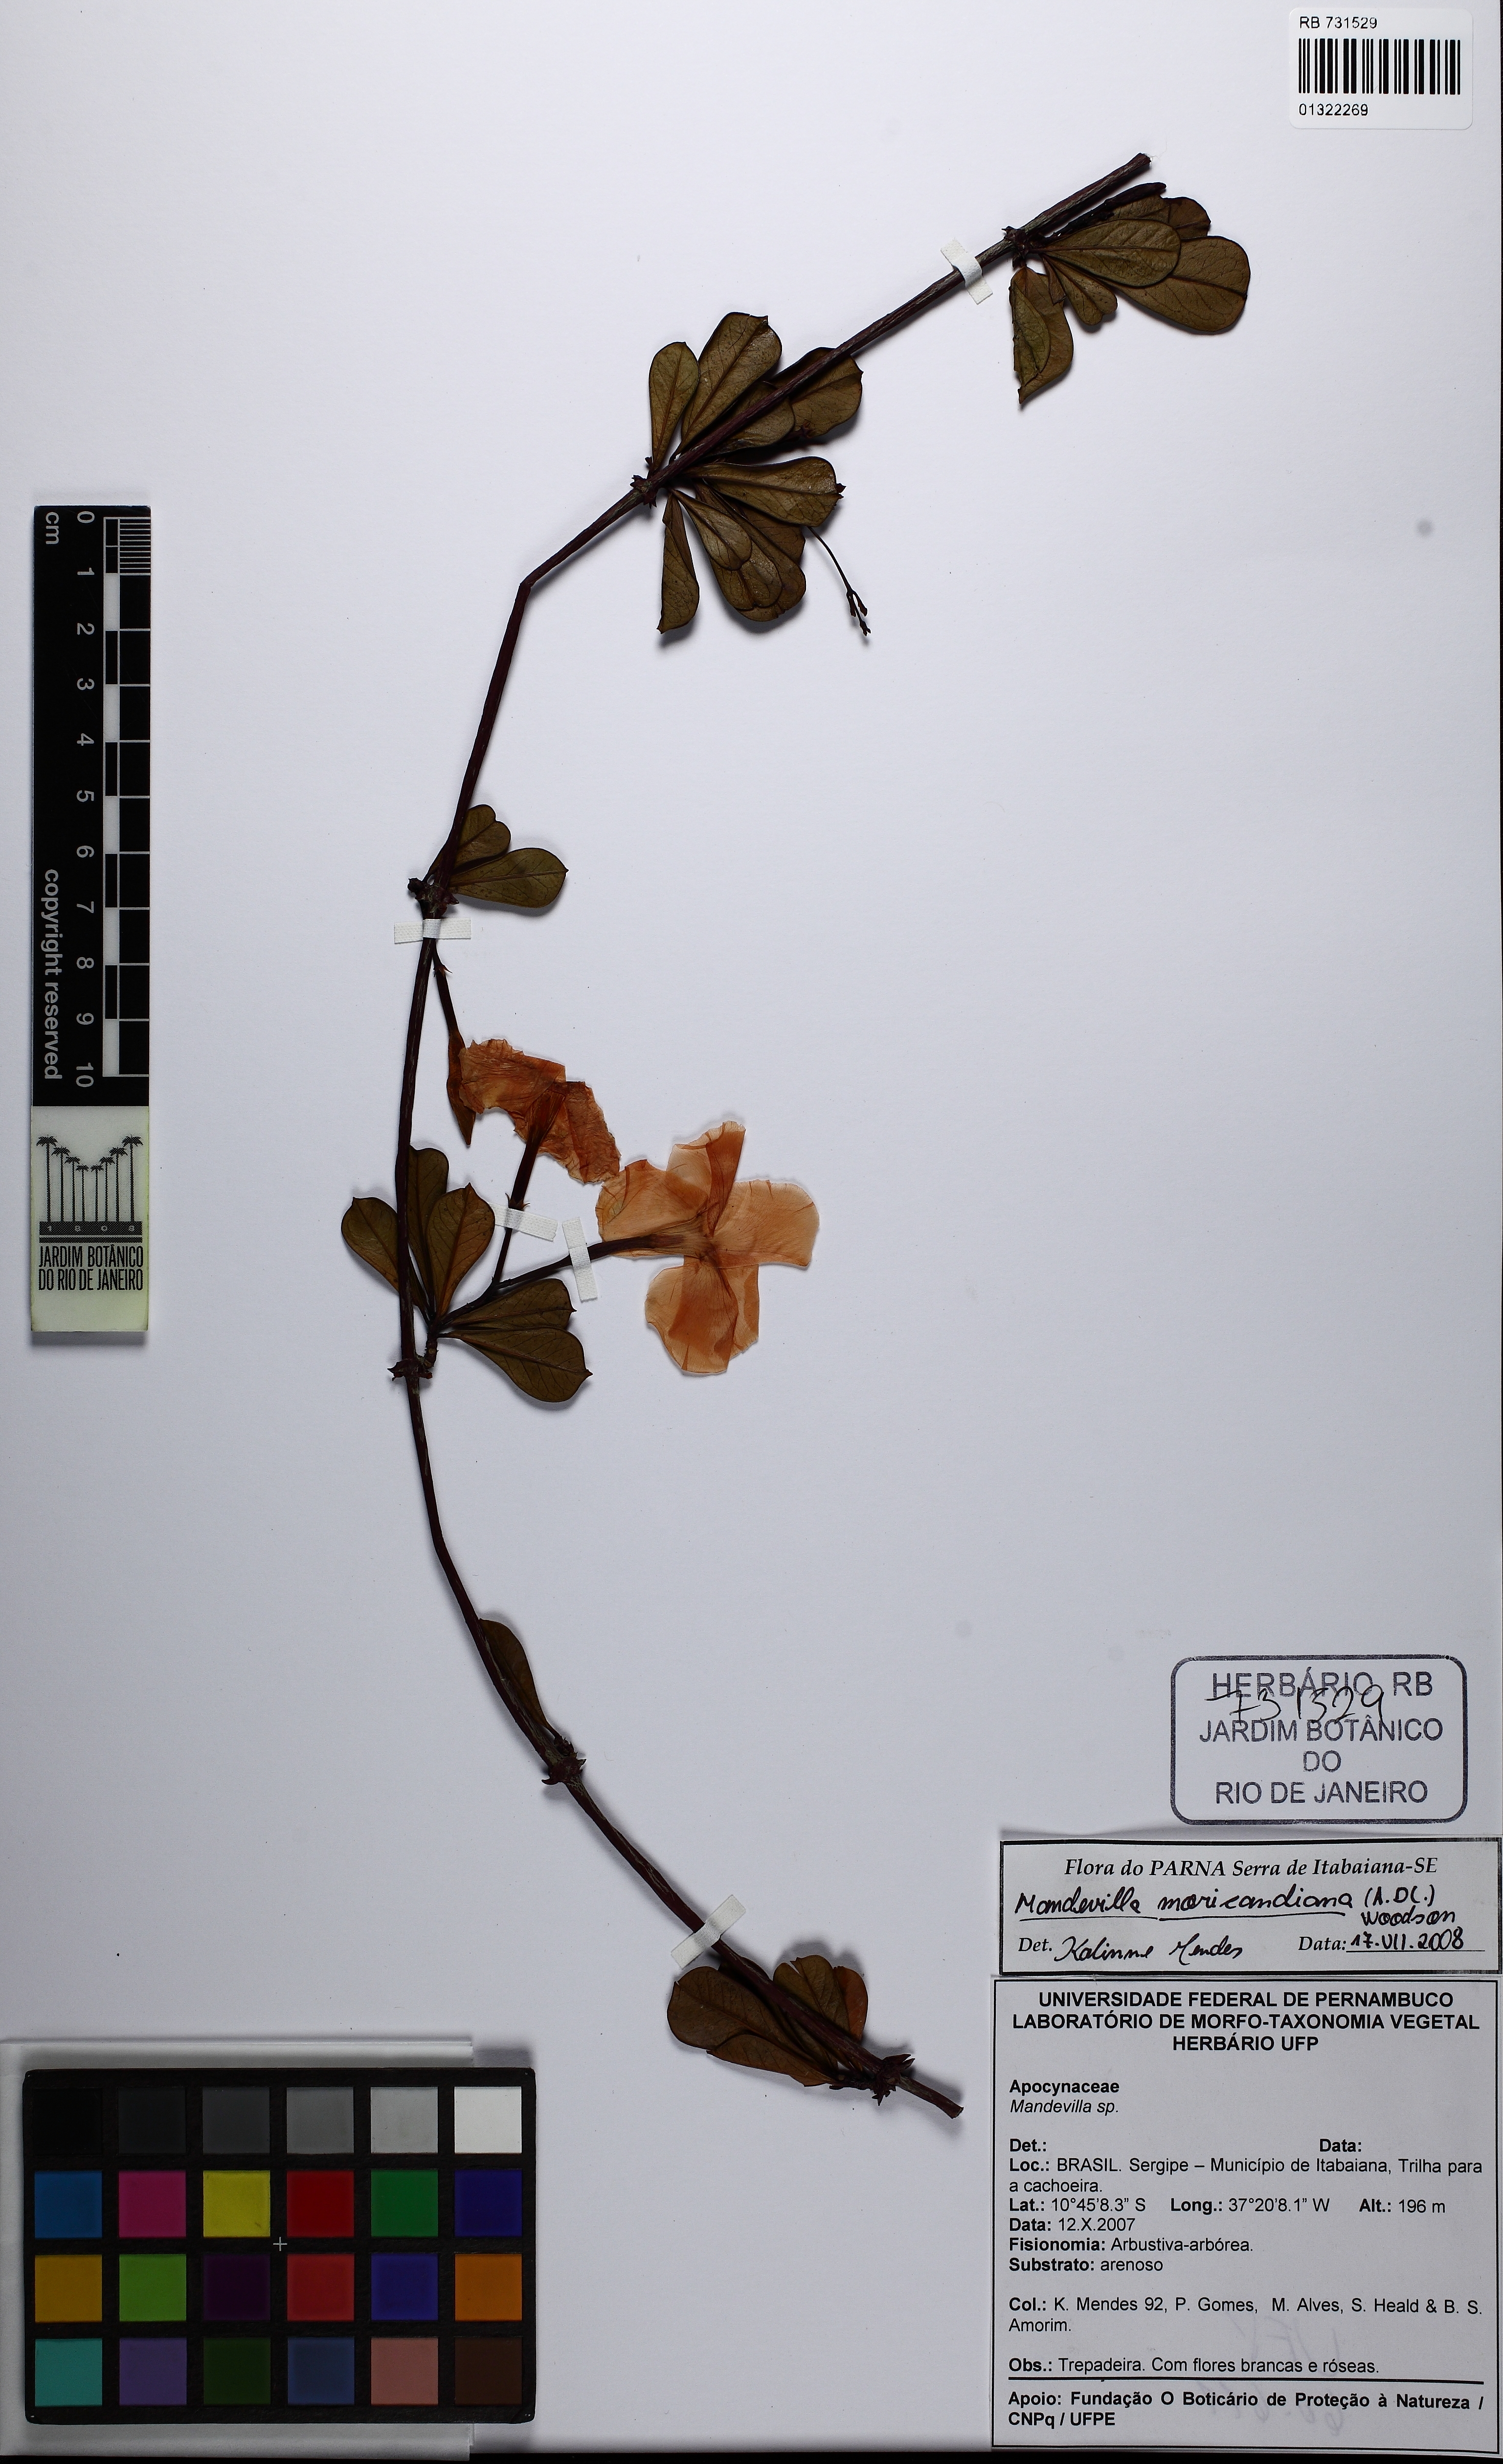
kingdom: Plantae
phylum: Tracheophyta
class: Magnoliopsida
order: Gentianales
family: Apocynaceae
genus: Mandevilla
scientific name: Mandevilla moricandiana
